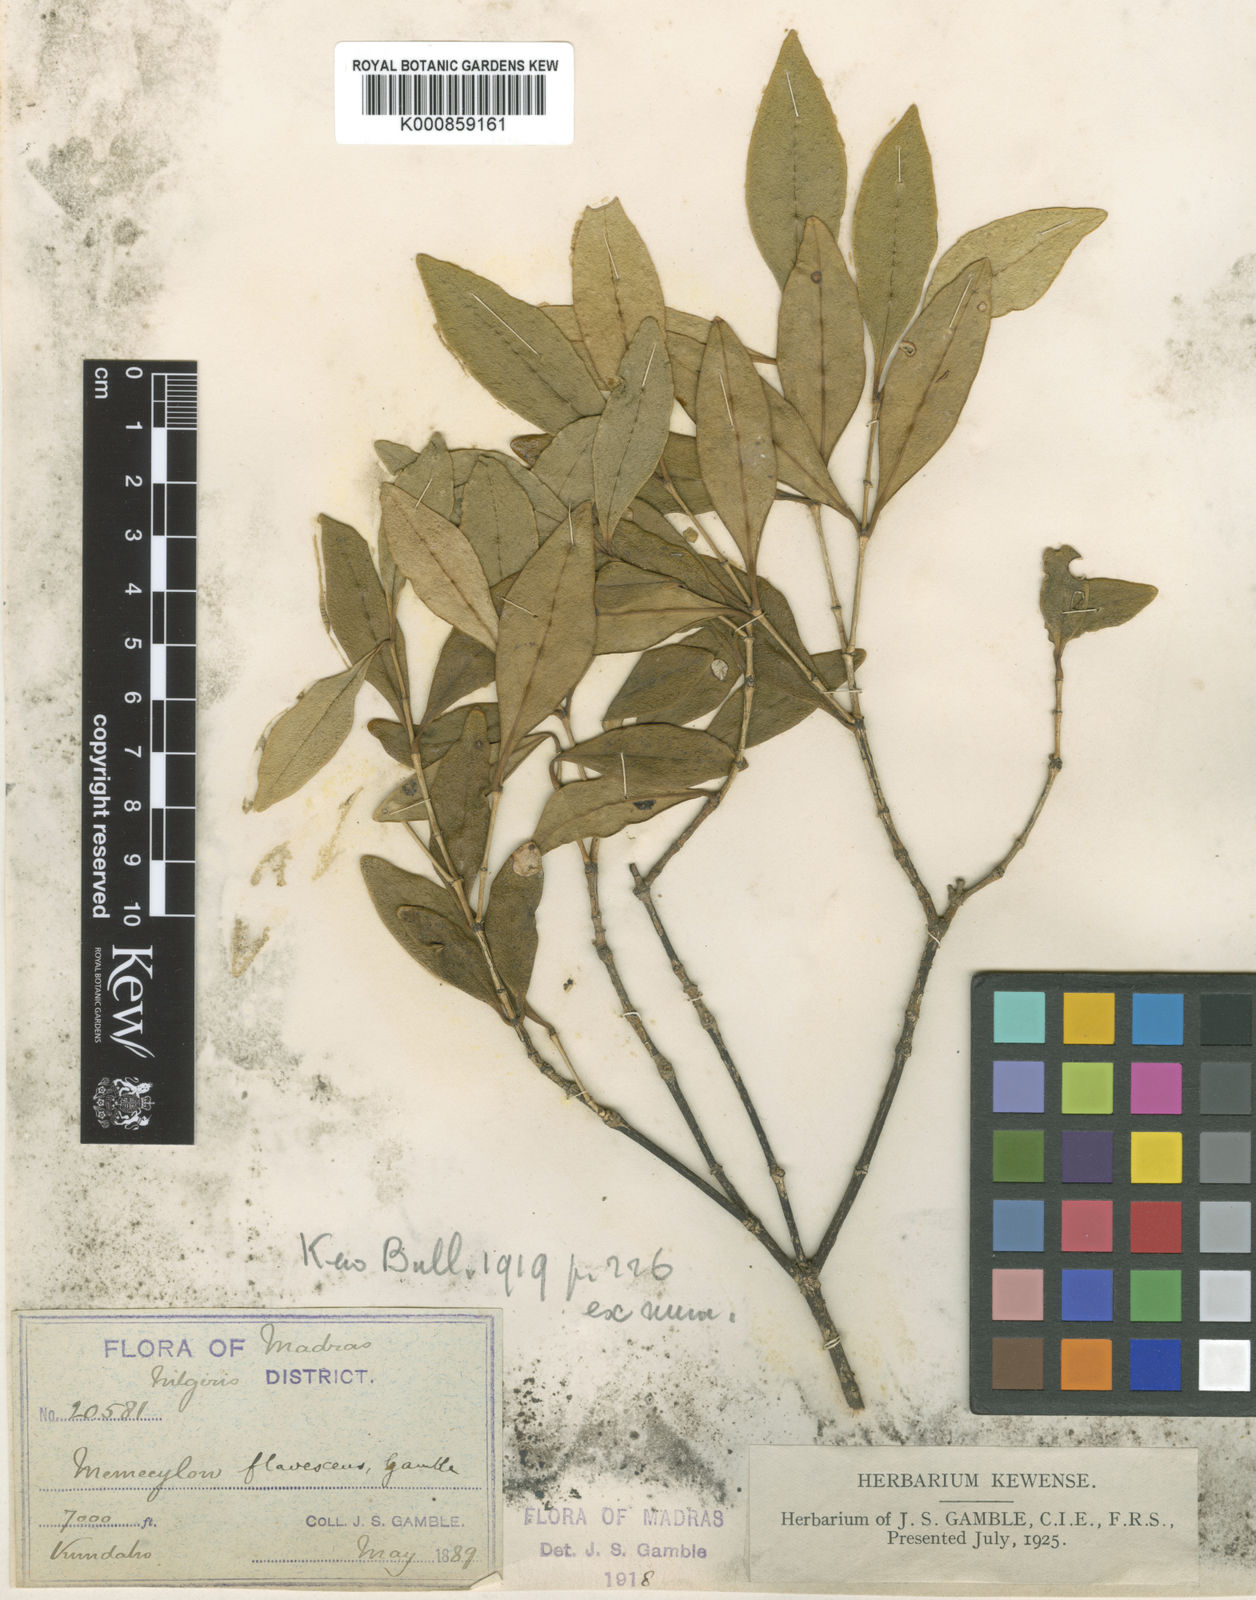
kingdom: Plantae
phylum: Tracheophyta
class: Magnoliopsida
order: Myrtales
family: Melastomataceae
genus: Memecylon
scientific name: Memecylon flavescens
